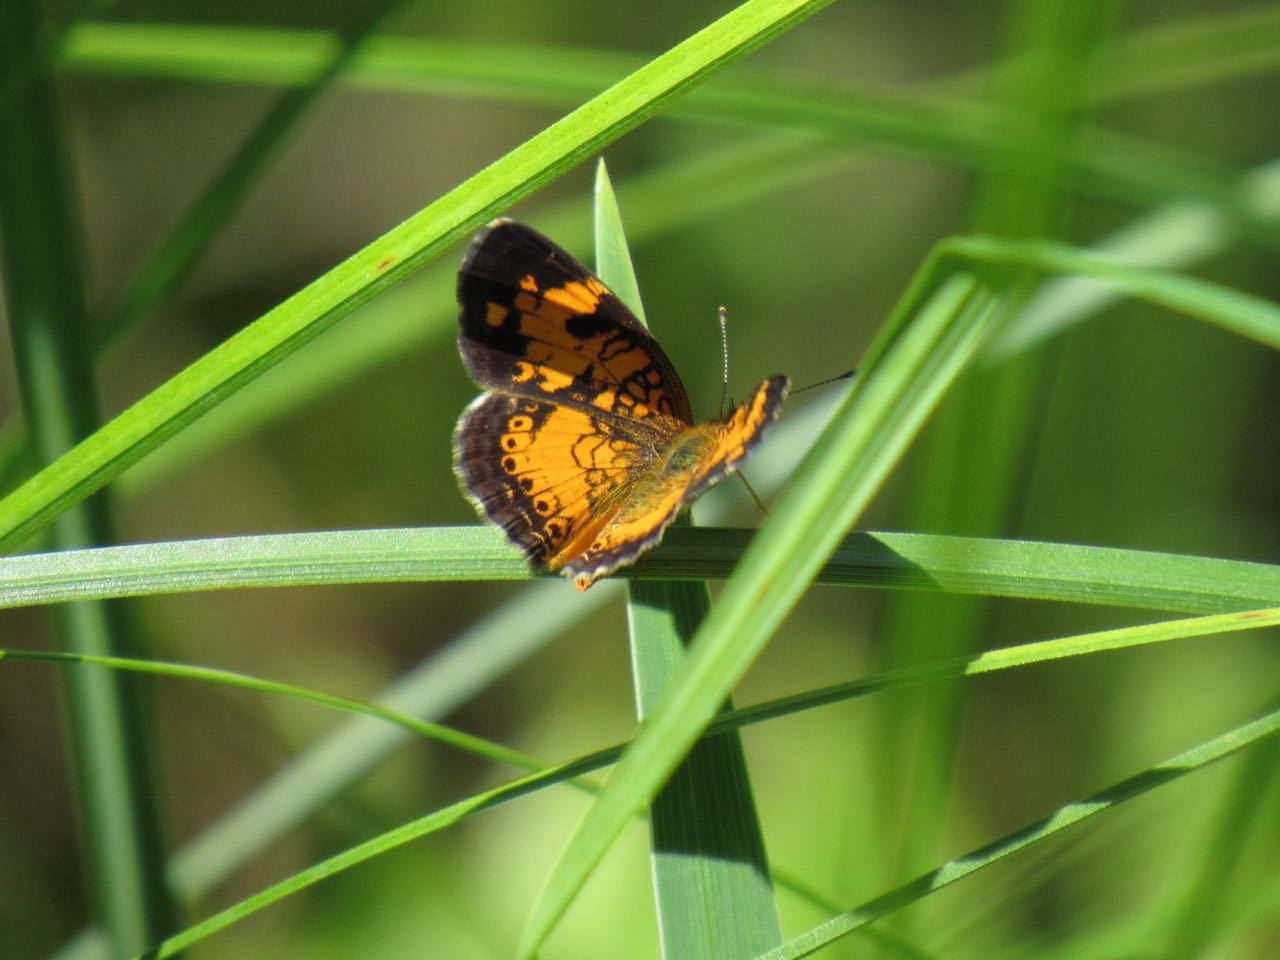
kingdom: Animalia
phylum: Arthropoda
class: Insecta
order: Lepidoptera
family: Nymphalidae
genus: Phyciodes
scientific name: Phyciodes
